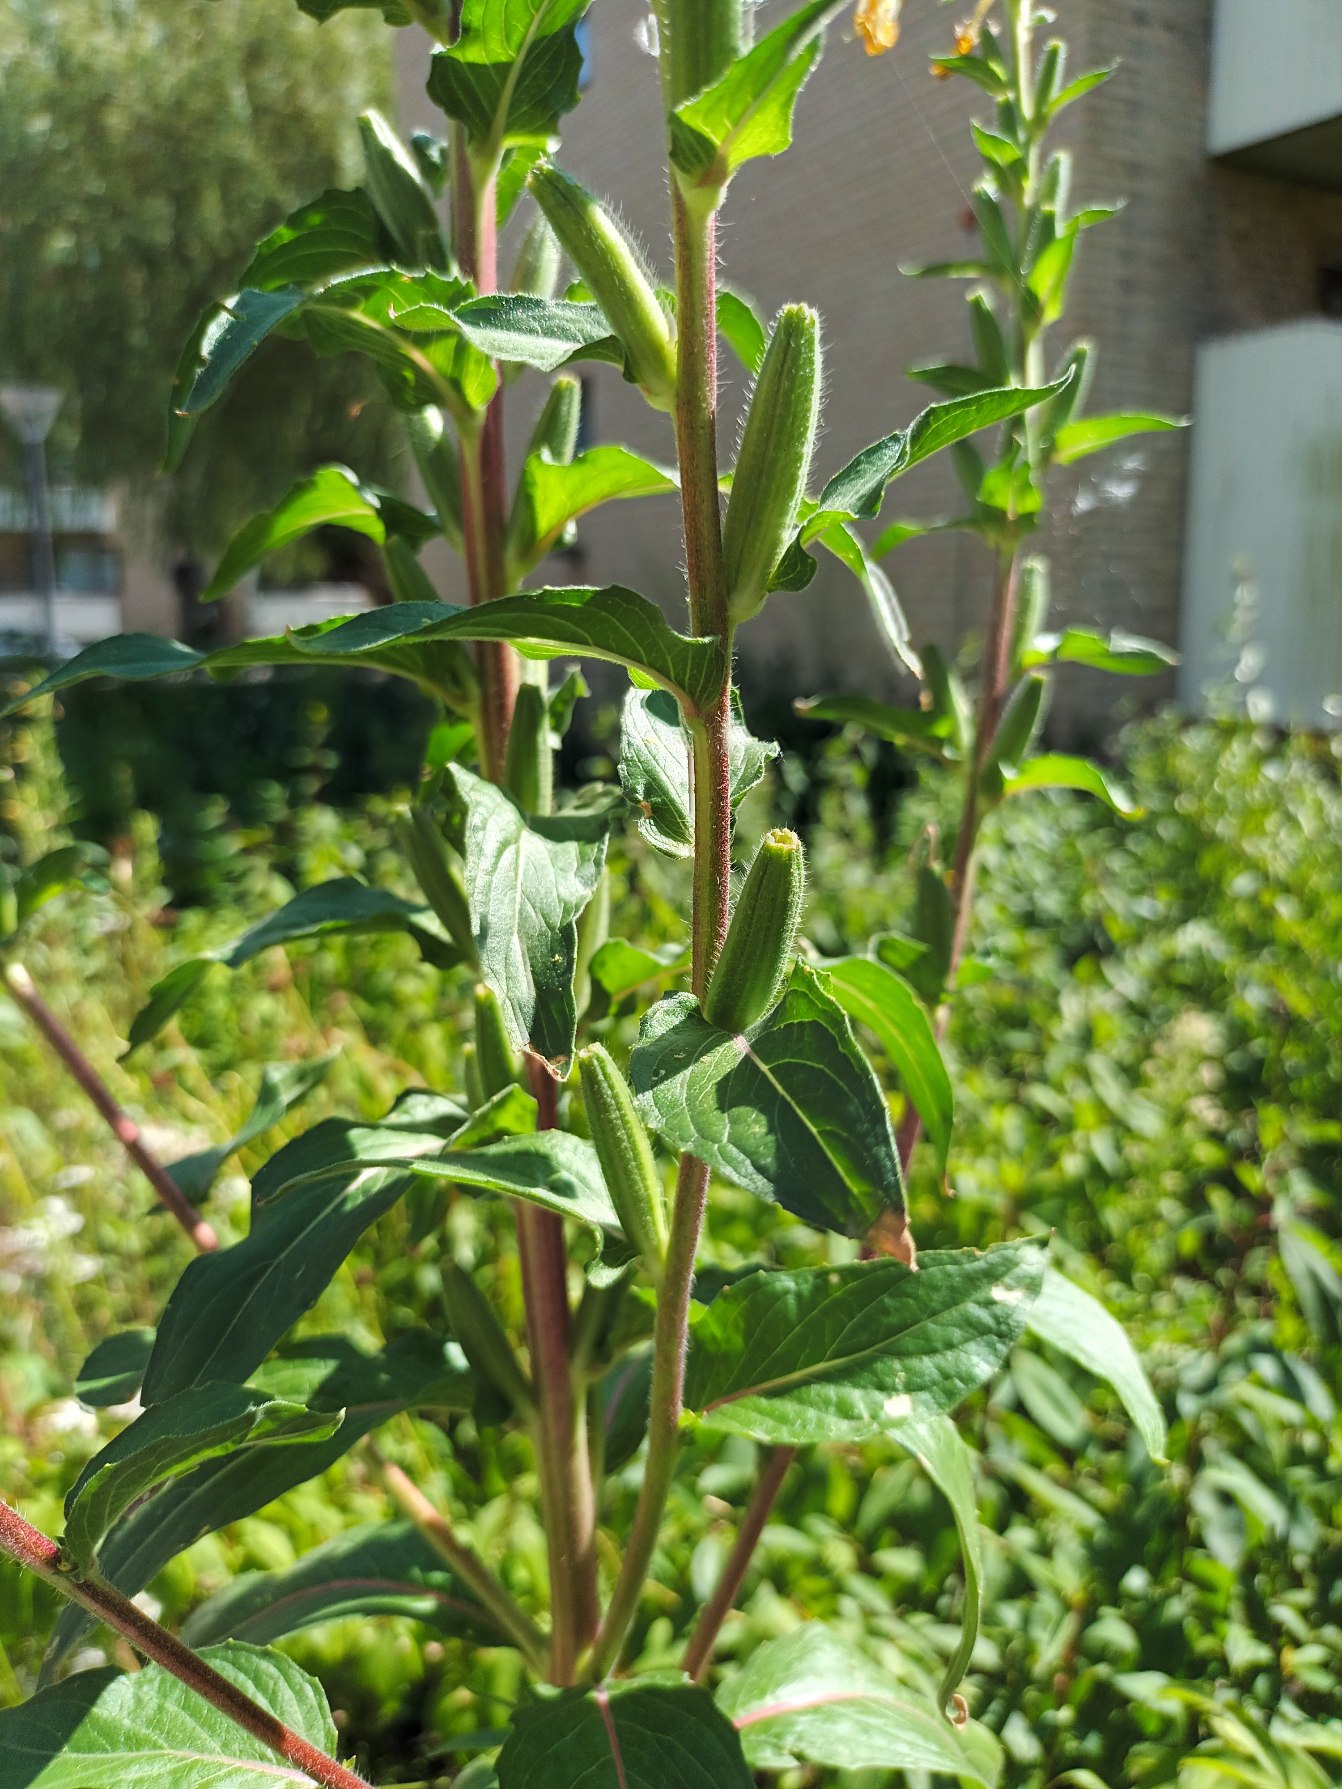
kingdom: Plantae
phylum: Tracheophyta
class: Magnoliopsida
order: Myrtales
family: Onagraceae
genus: Oenothera
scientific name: Oenothera
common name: Natlysslægten
